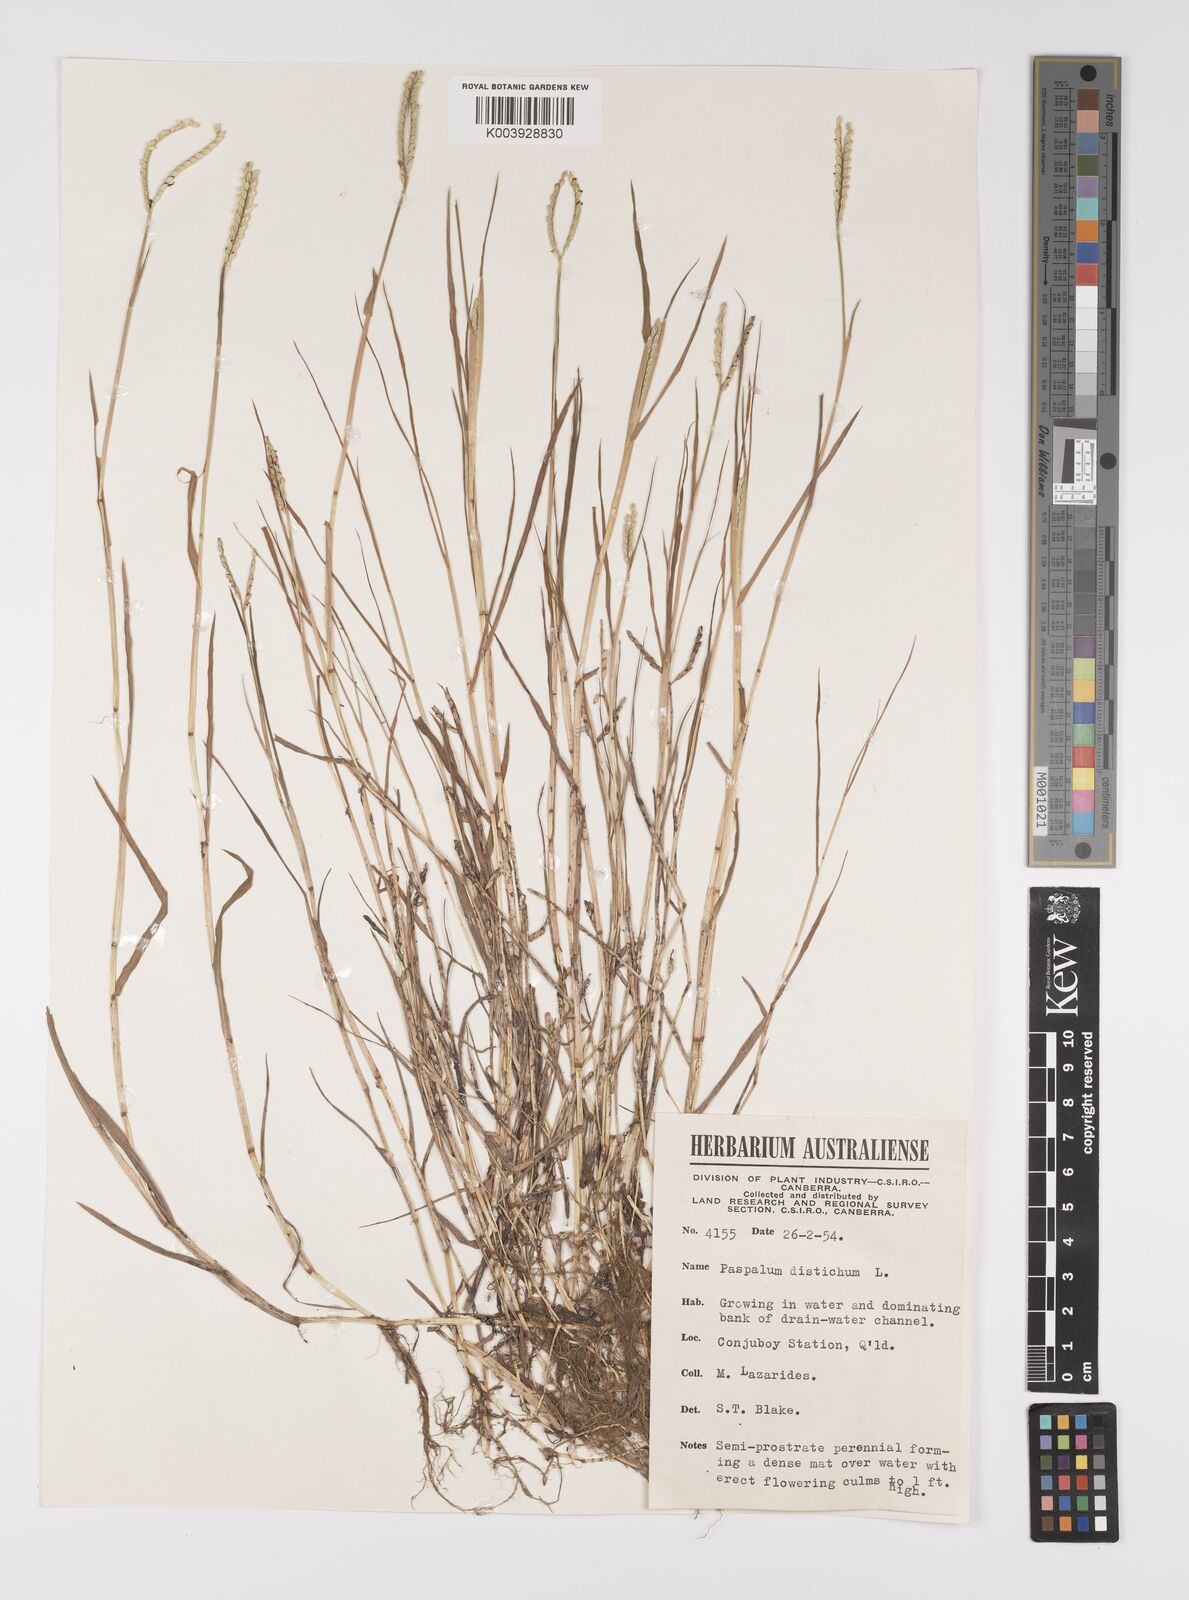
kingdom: Plantae
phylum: Tracheophyta
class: Liliopsida
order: Poales
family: Poaceae
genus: Paspalum
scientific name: Paspalum distichum
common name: Knotgrass
